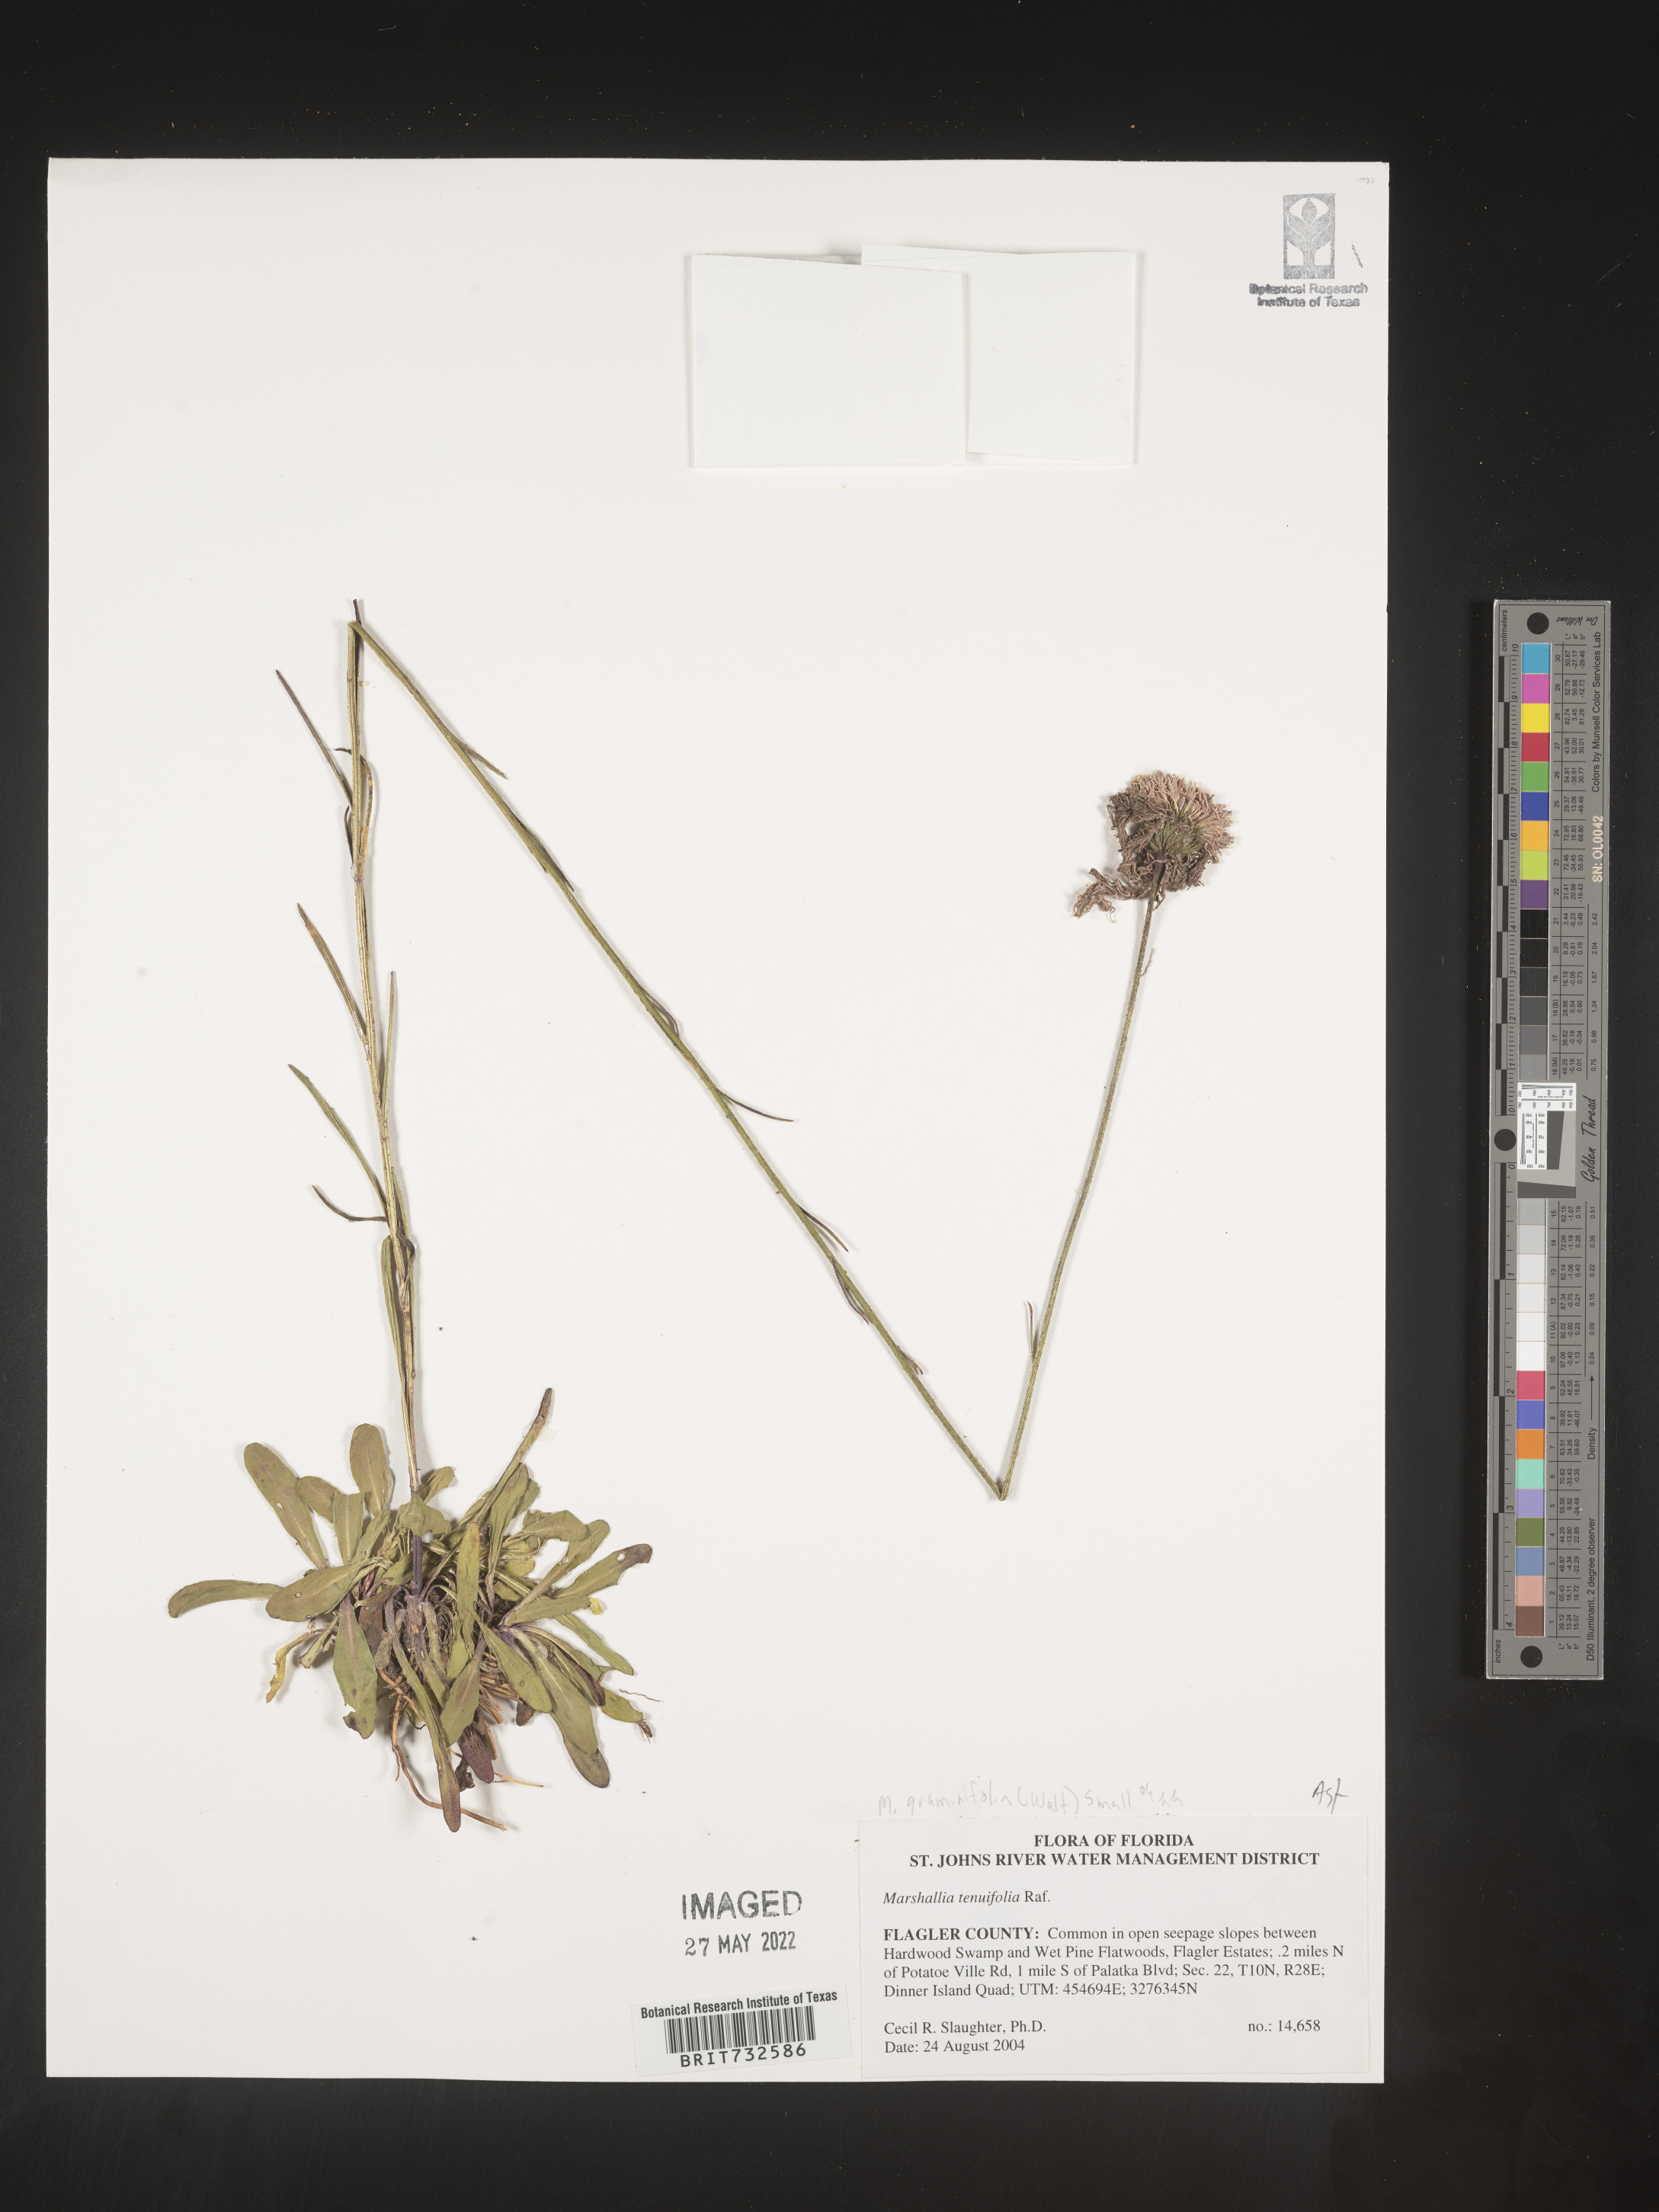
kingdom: Plantae
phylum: Tracheophyta
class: Magnoliopsida
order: Asterales
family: Asteraceae
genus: Marshallia
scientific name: Marshallia graminifolia
